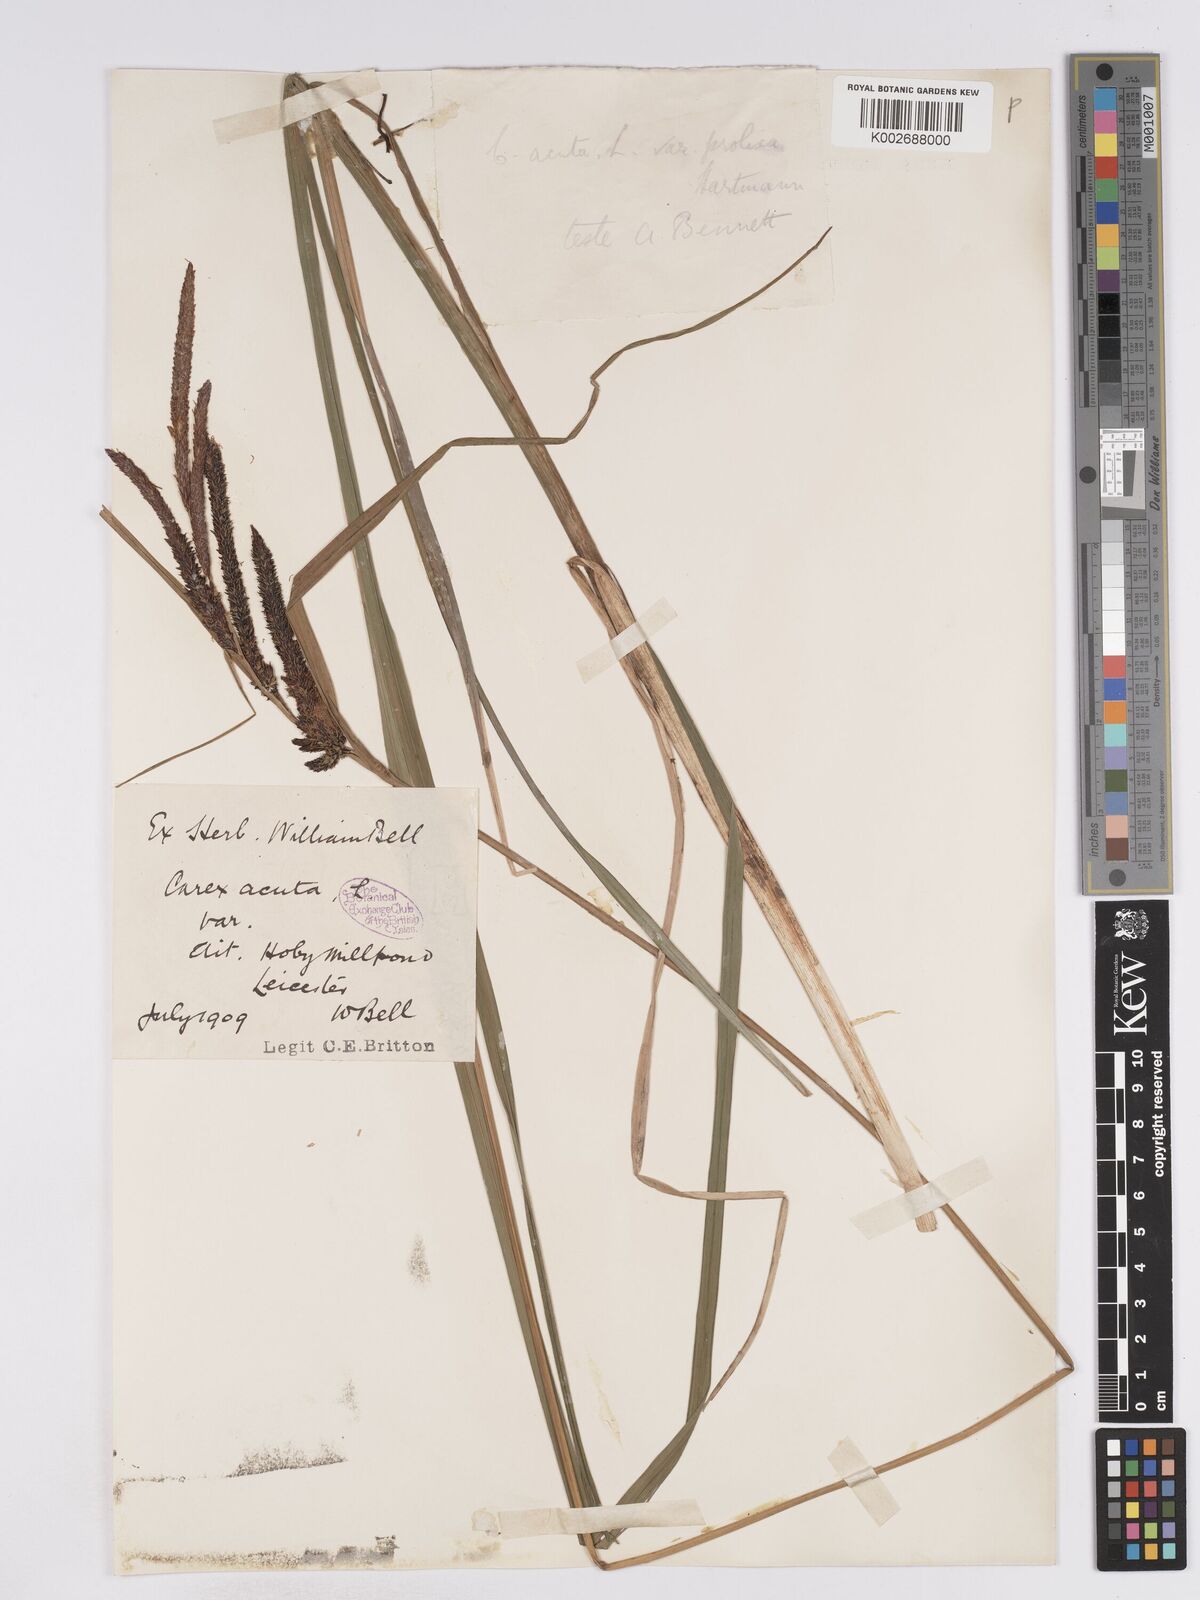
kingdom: Plantae
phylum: Tracheophyta
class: Liliopsida
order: Poales
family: Cyperaceae
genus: Carex
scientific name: Carex acuta
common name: Slender tufted-sedge
